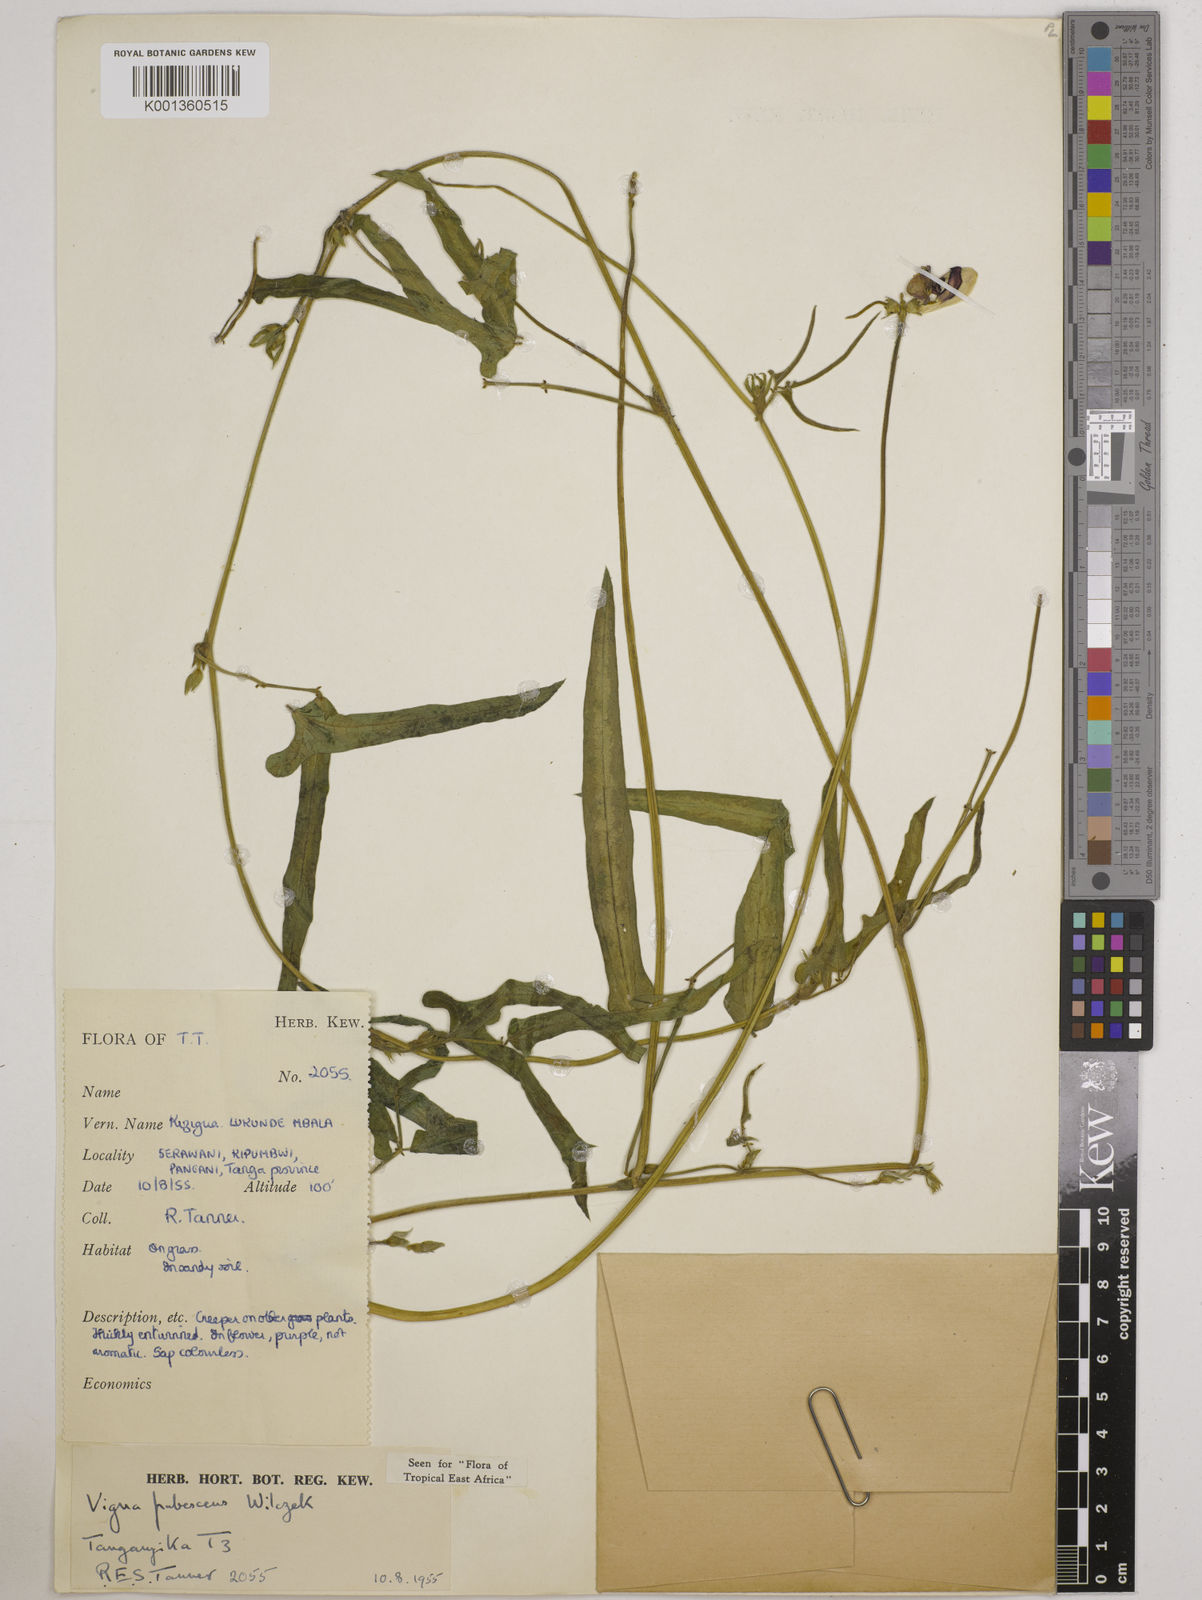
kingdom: Plantae
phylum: Tracheophyta
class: Magnoliopsida
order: Fabales
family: Fabaceae
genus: Vigna
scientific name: Vigna unguiculata
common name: Cowpea
